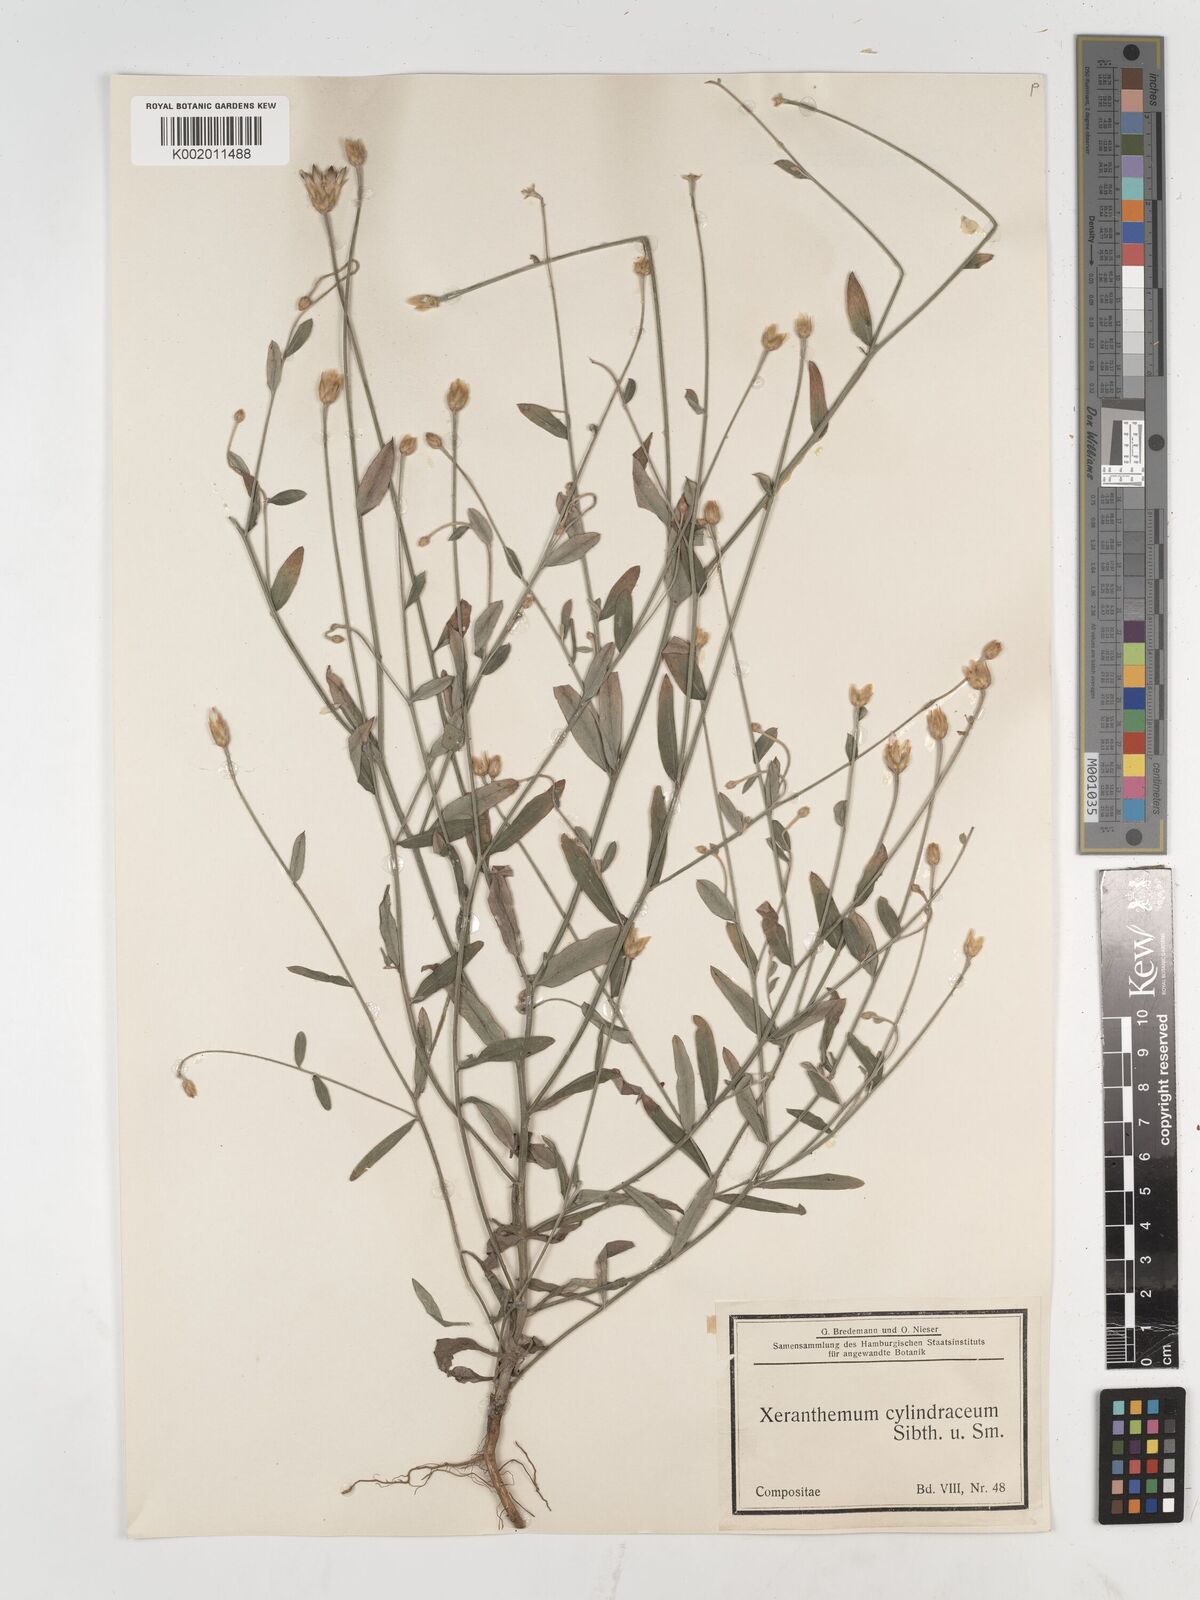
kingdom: Plantae
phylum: Tracheophyta
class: Magnoliopsida
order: Asterales
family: Asteraceae
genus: Xeranthemum
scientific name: Xeranthemum
